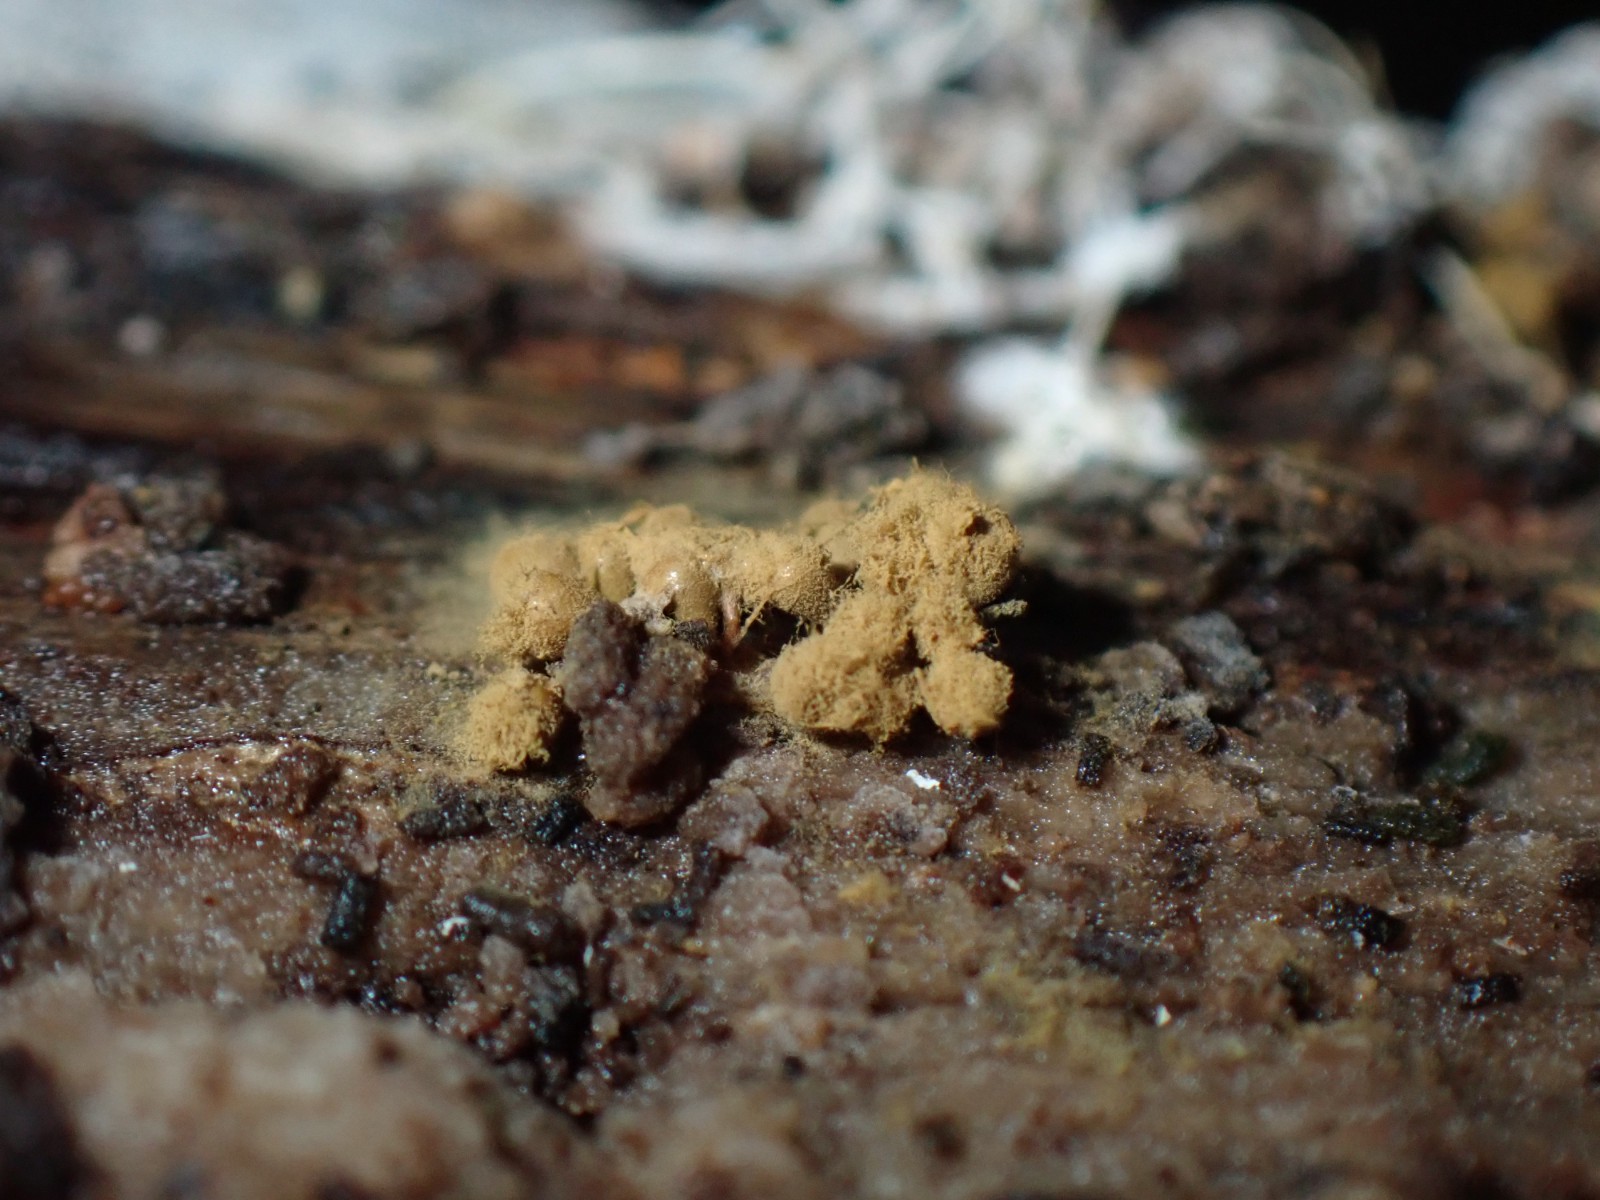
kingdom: Protozoa
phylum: Mycetozoa
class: Myxomycetes
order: Trichiales
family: Trichiaceae
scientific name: Trichiaceae
